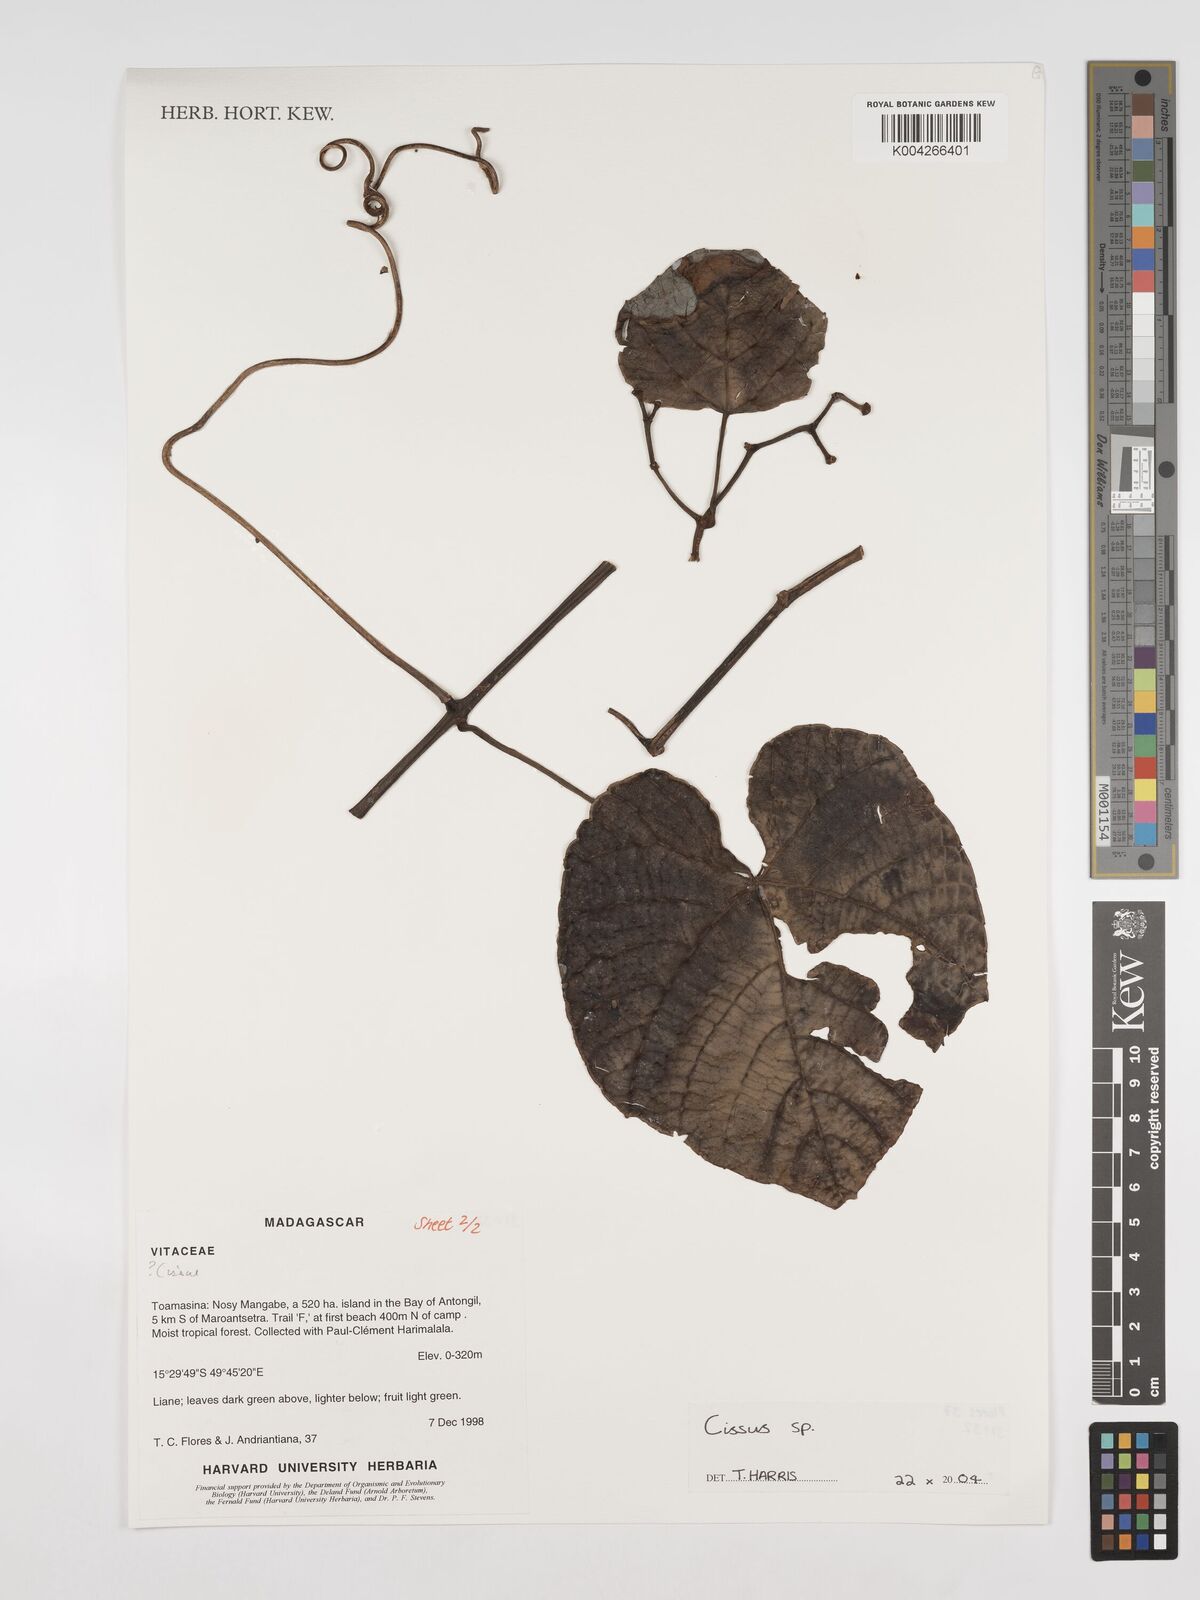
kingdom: Plantae
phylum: Tracheophyta
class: Magnoliopsida
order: Vitales
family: Vitaceae
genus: Cissus
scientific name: Cissus
